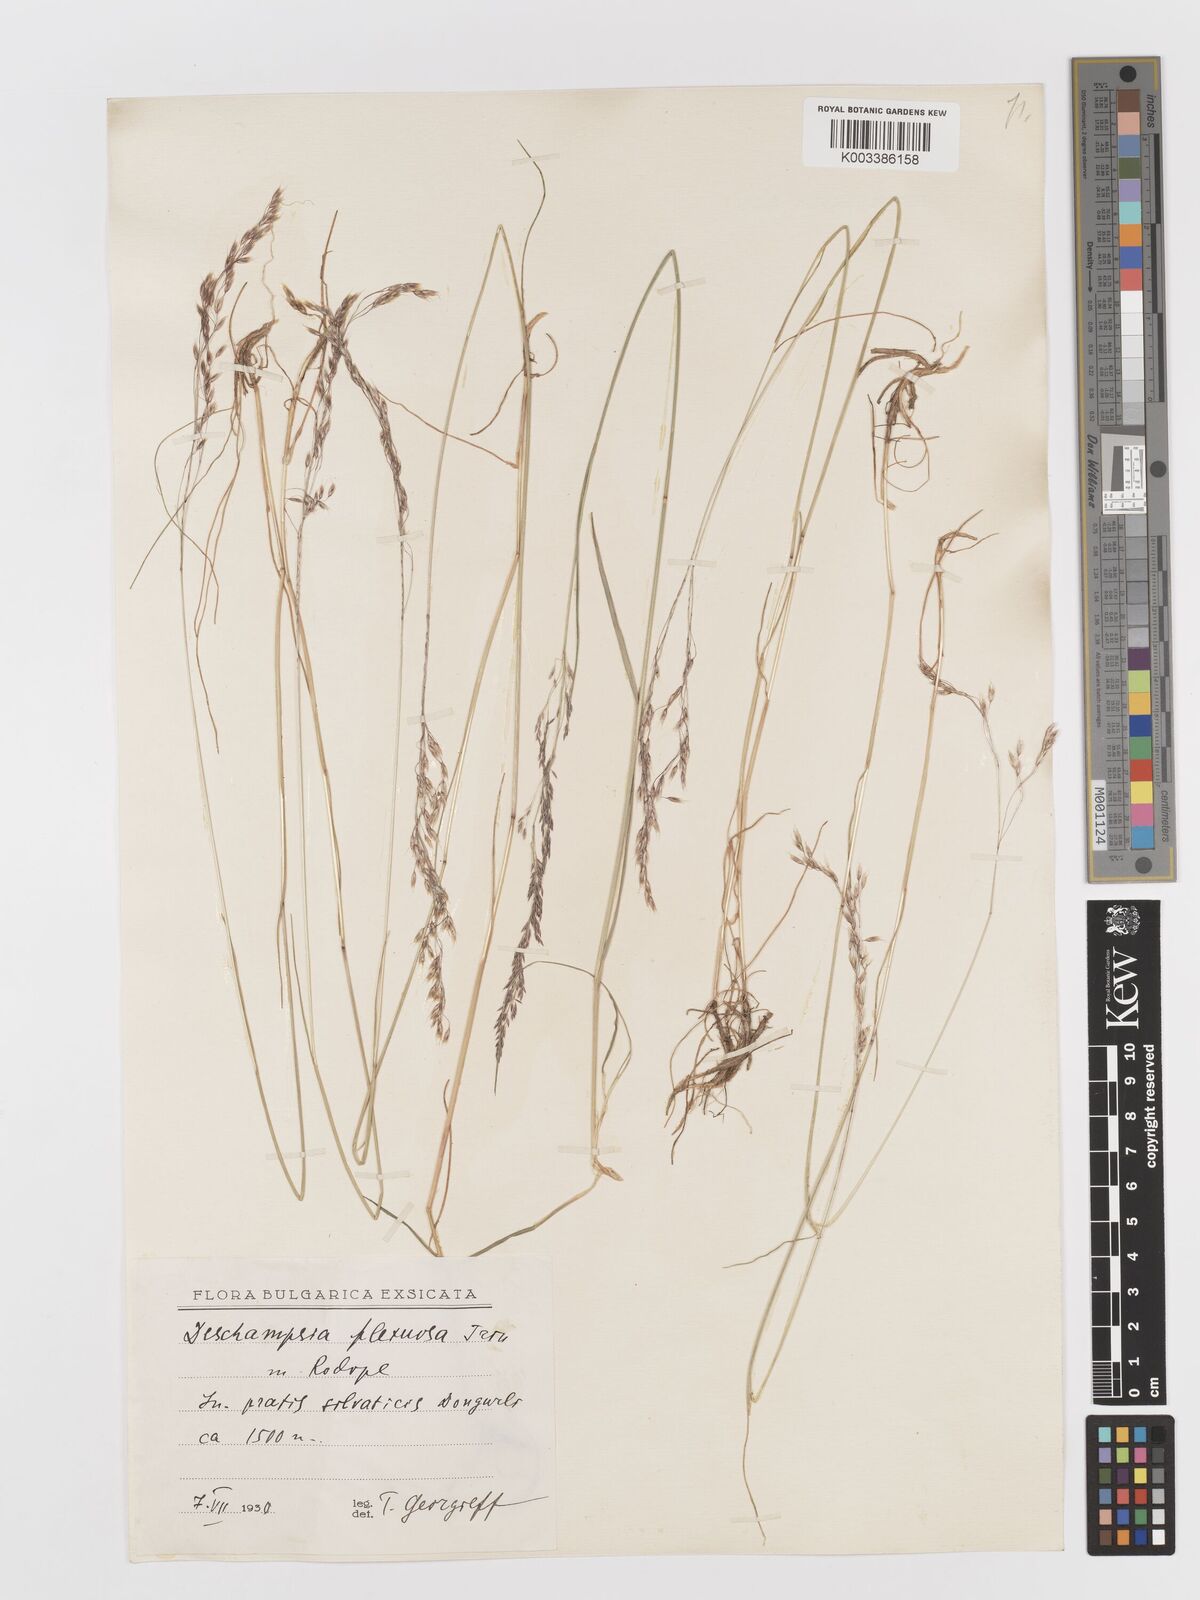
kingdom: Plantae
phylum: Tracheophyta
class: Liliopsida
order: Poales
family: Poaceae
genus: Avenella
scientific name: Avenella flexuosa
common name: Wavy hairgrass
